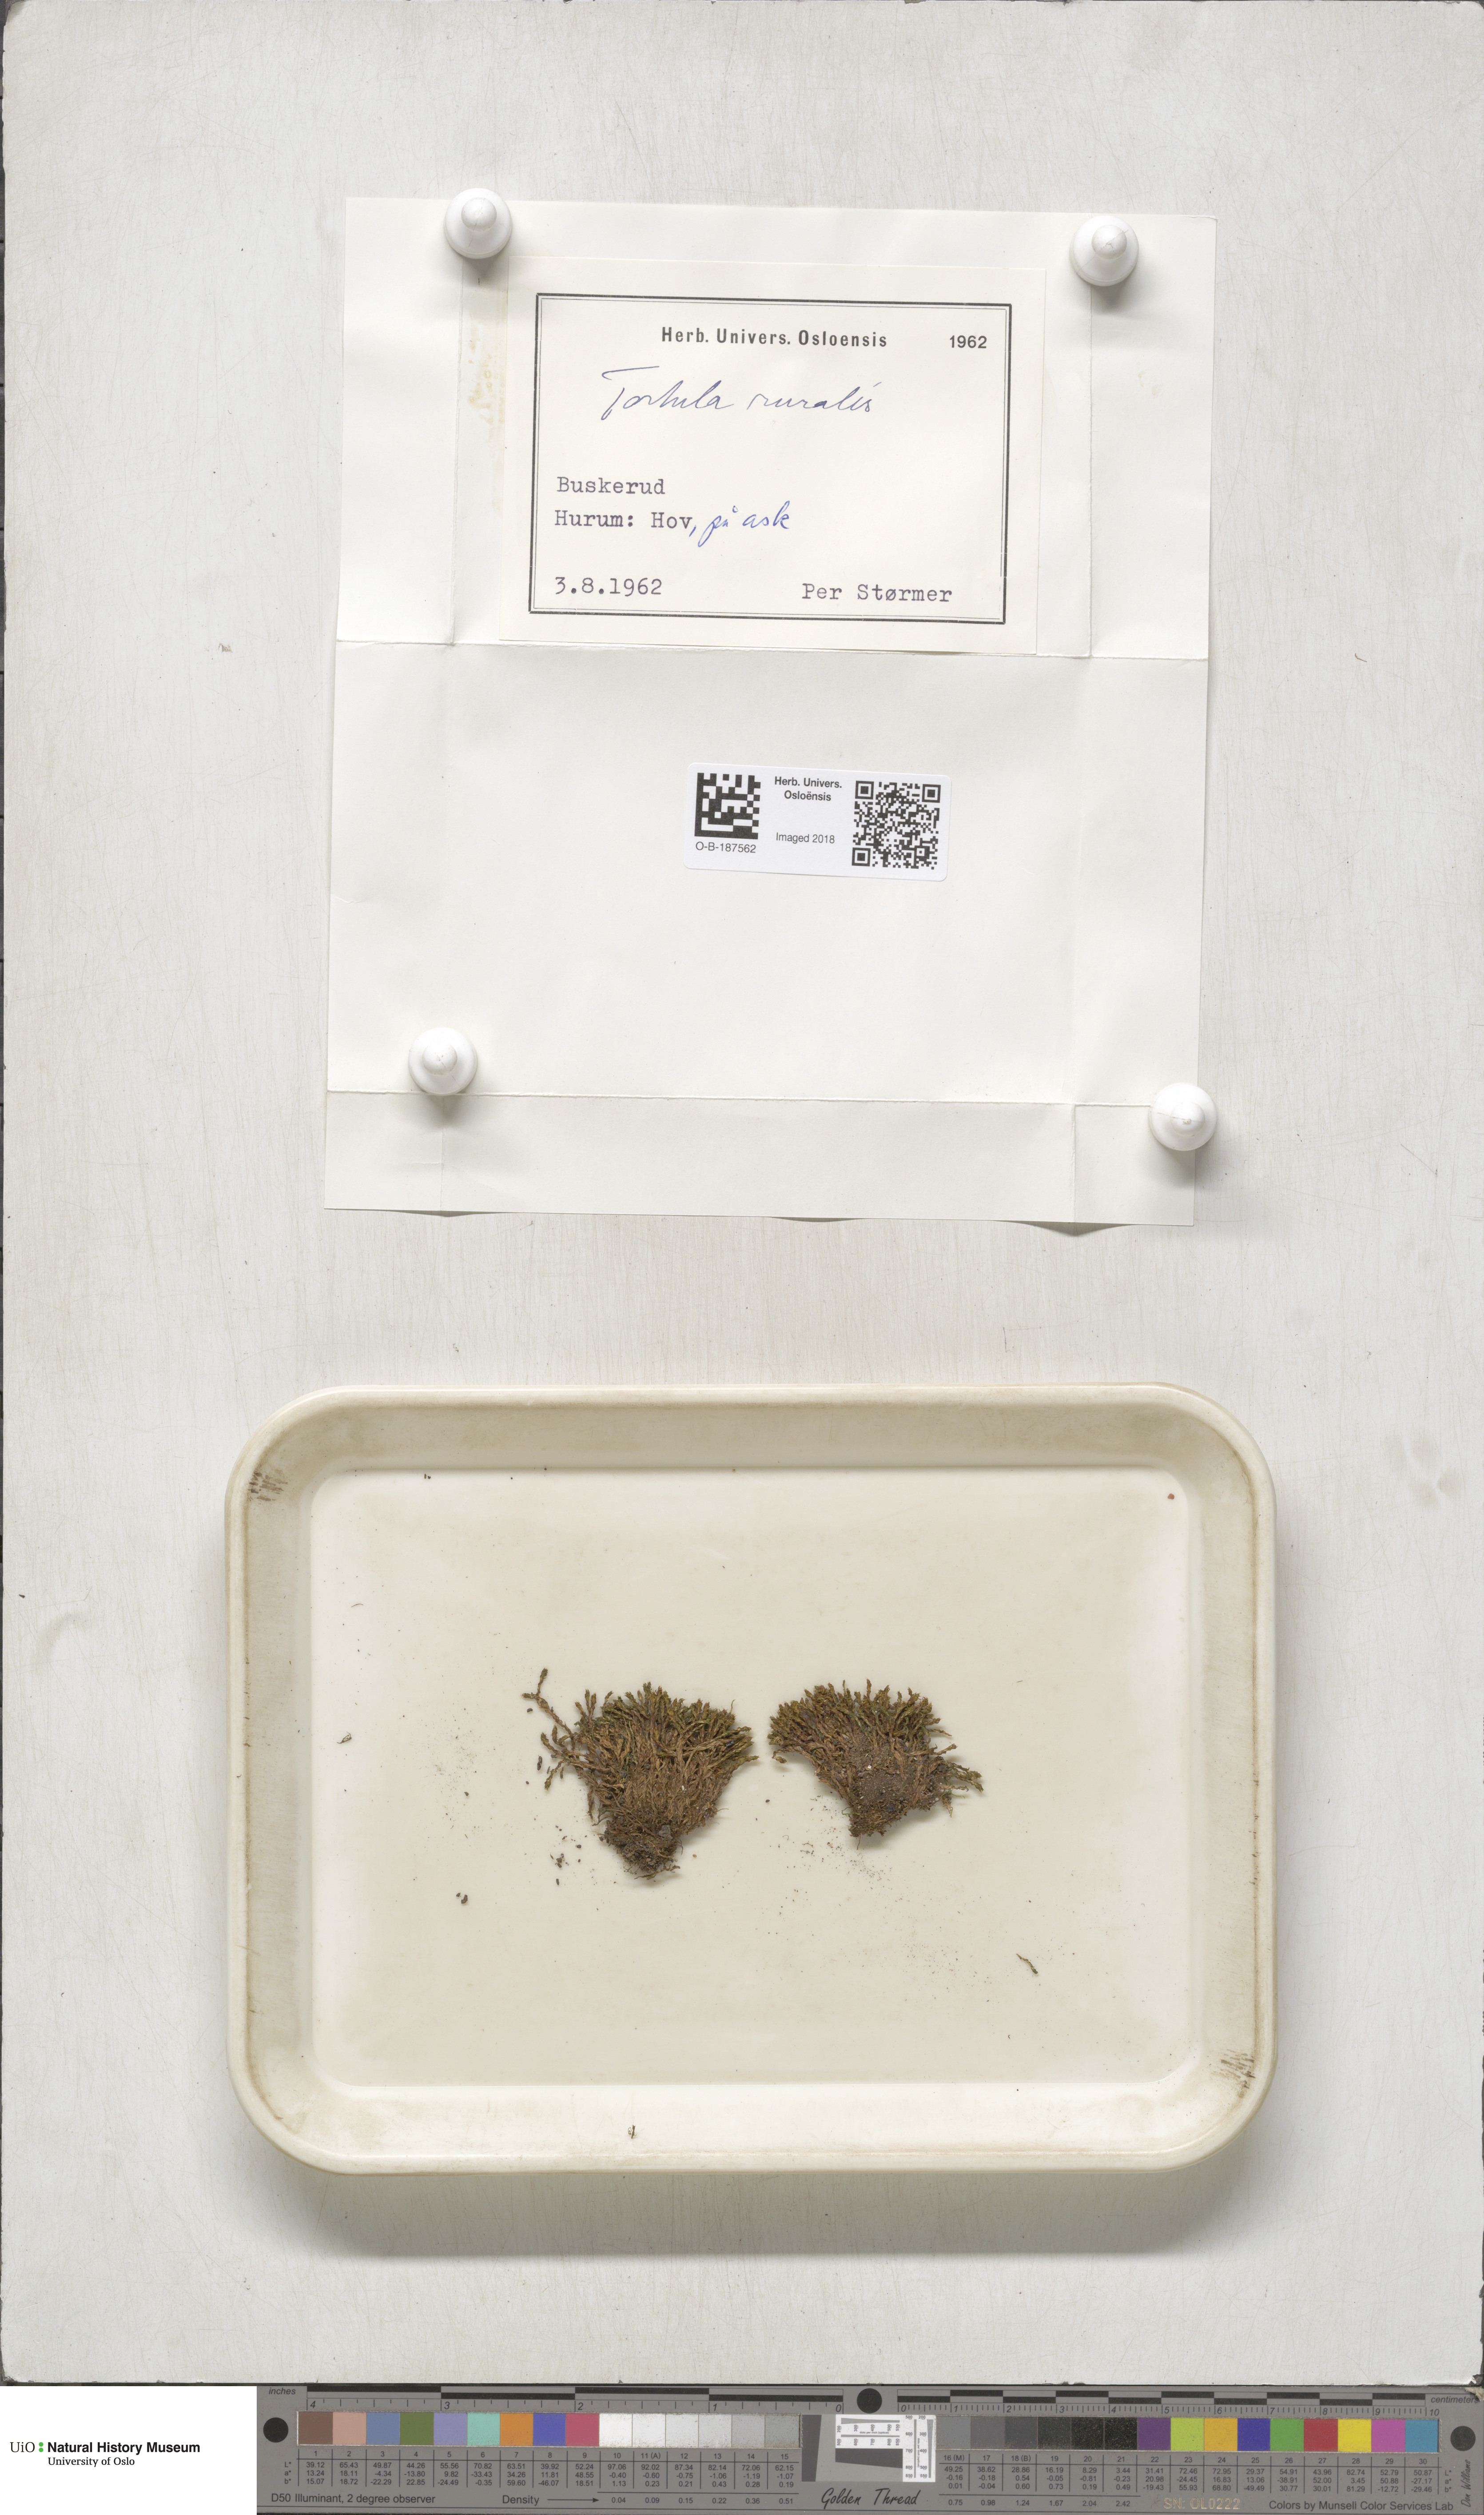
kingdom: Plantae
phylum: Bryophyta
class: Bryopsida
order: Pottiales
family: Pottiaceae
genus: Syntrichia
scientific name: Syntrichia ruralis
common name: Sidewalk screw moss
